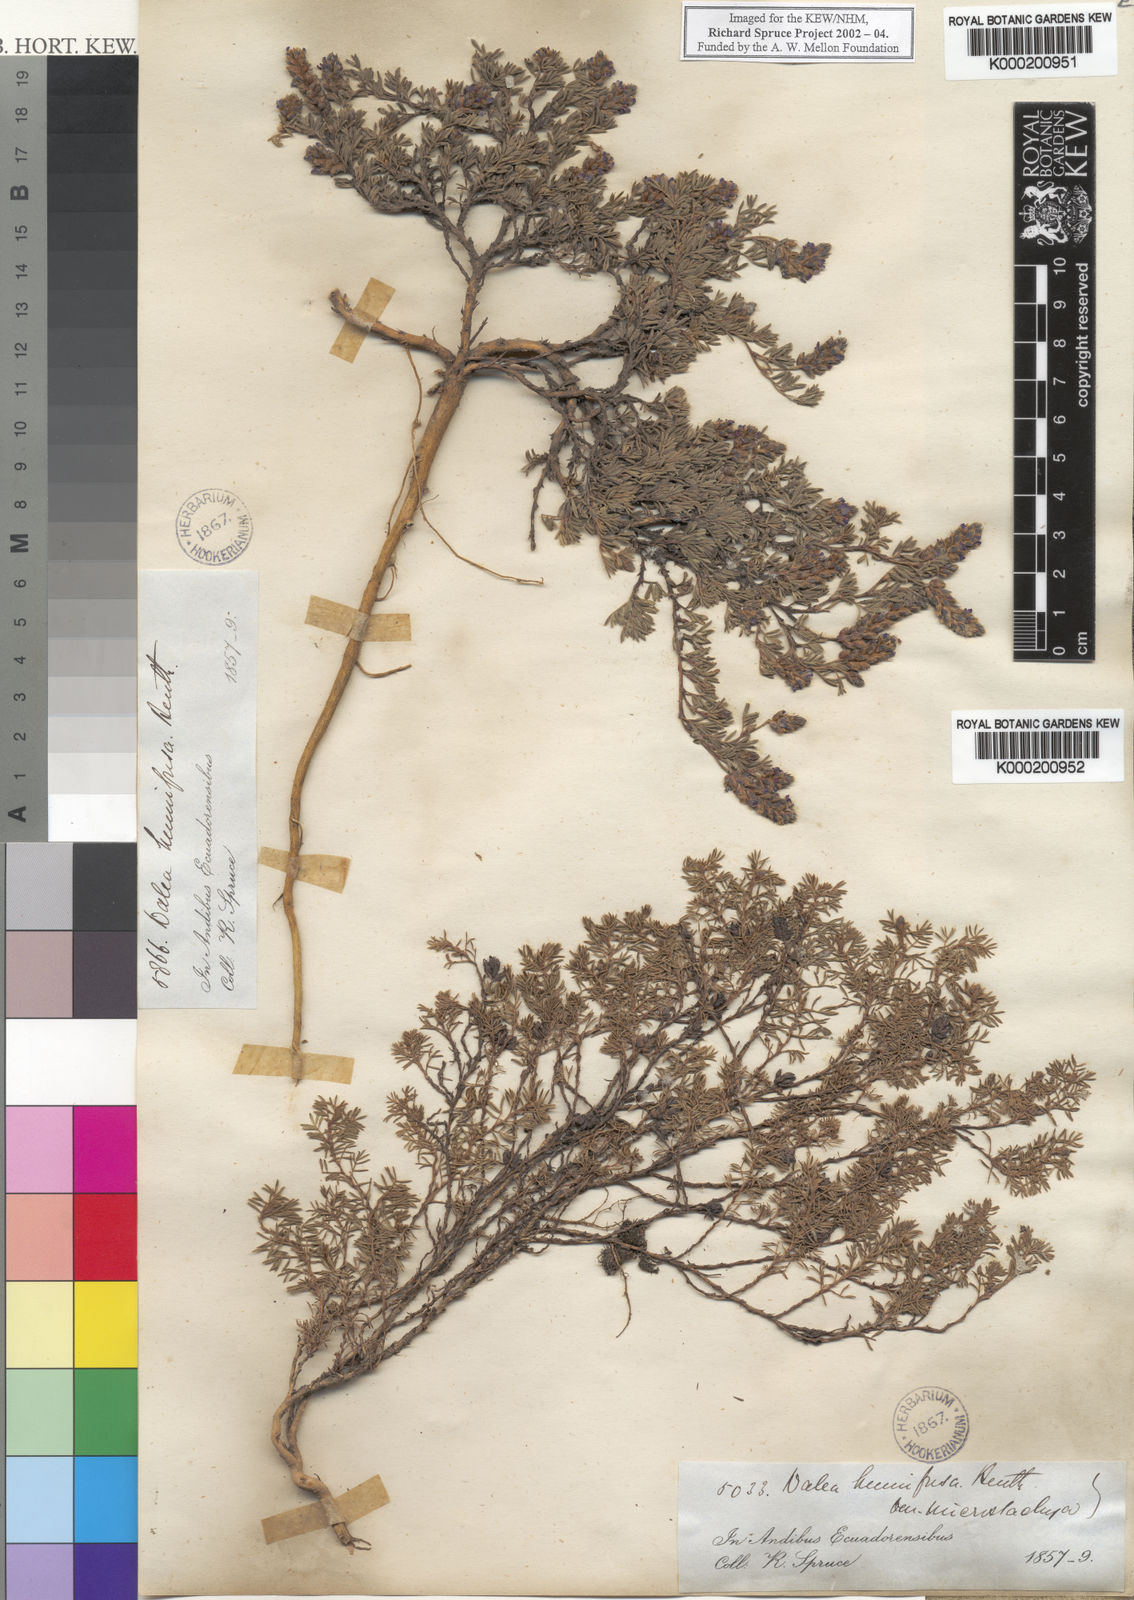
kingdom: Plantae
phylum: Tracheophyta
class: Magnoliopsida
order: Fabales
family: Fabaceae
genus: Dalea
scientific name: Dalea humifusa
